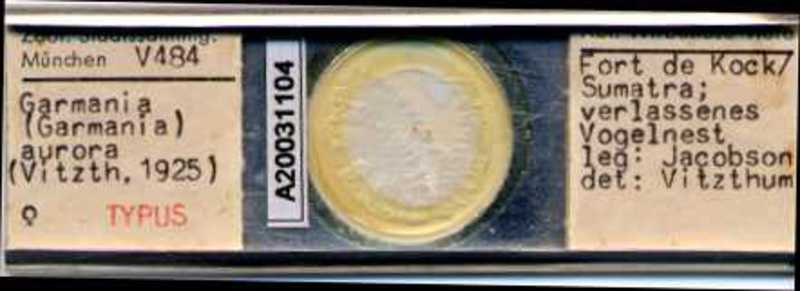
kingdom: Animalia
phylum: Arthropoda
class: Arachnida
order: Mesostigmata
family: Melicharidae
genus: Proctolaelaps
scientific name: Proctolaelaps aurora
